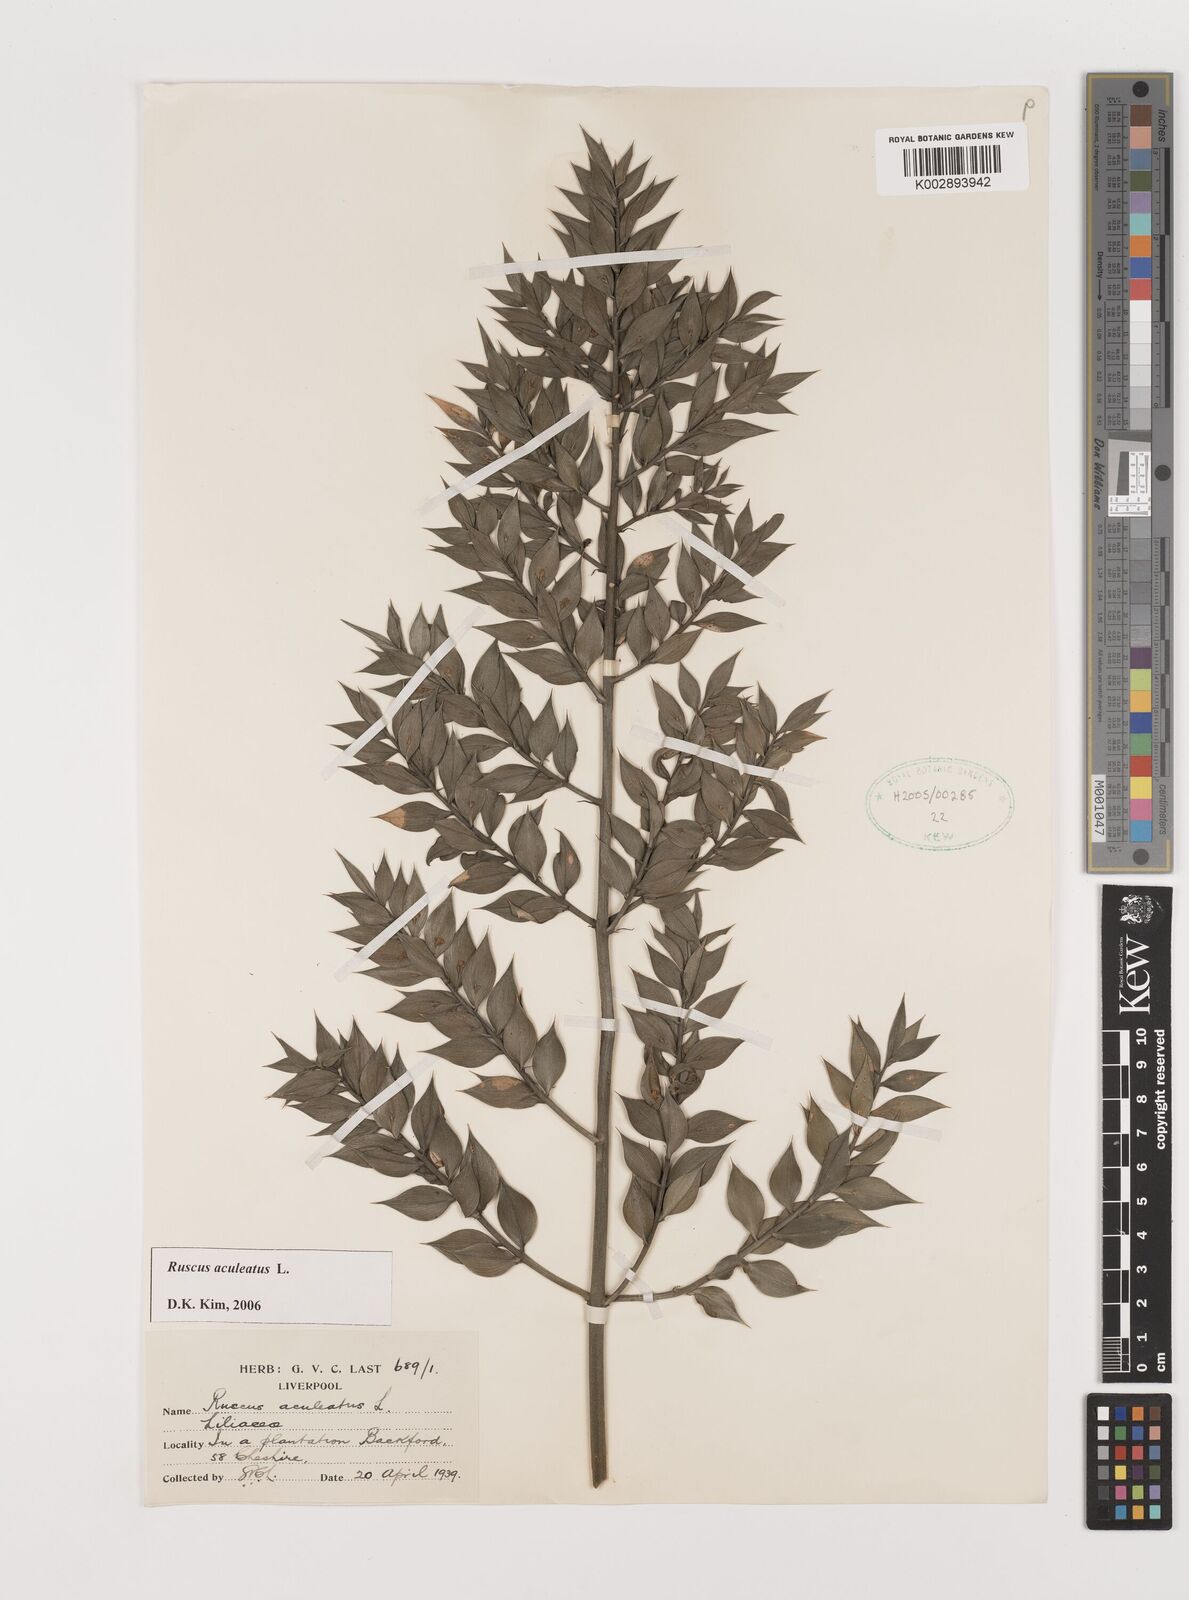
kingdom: Plantae
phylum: Tracheophyta
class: Liliopsida
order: Asparagales
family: Asparagaceae
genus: Ruscus
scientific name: Ruscus aculeatus
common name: Butcher's-broom
